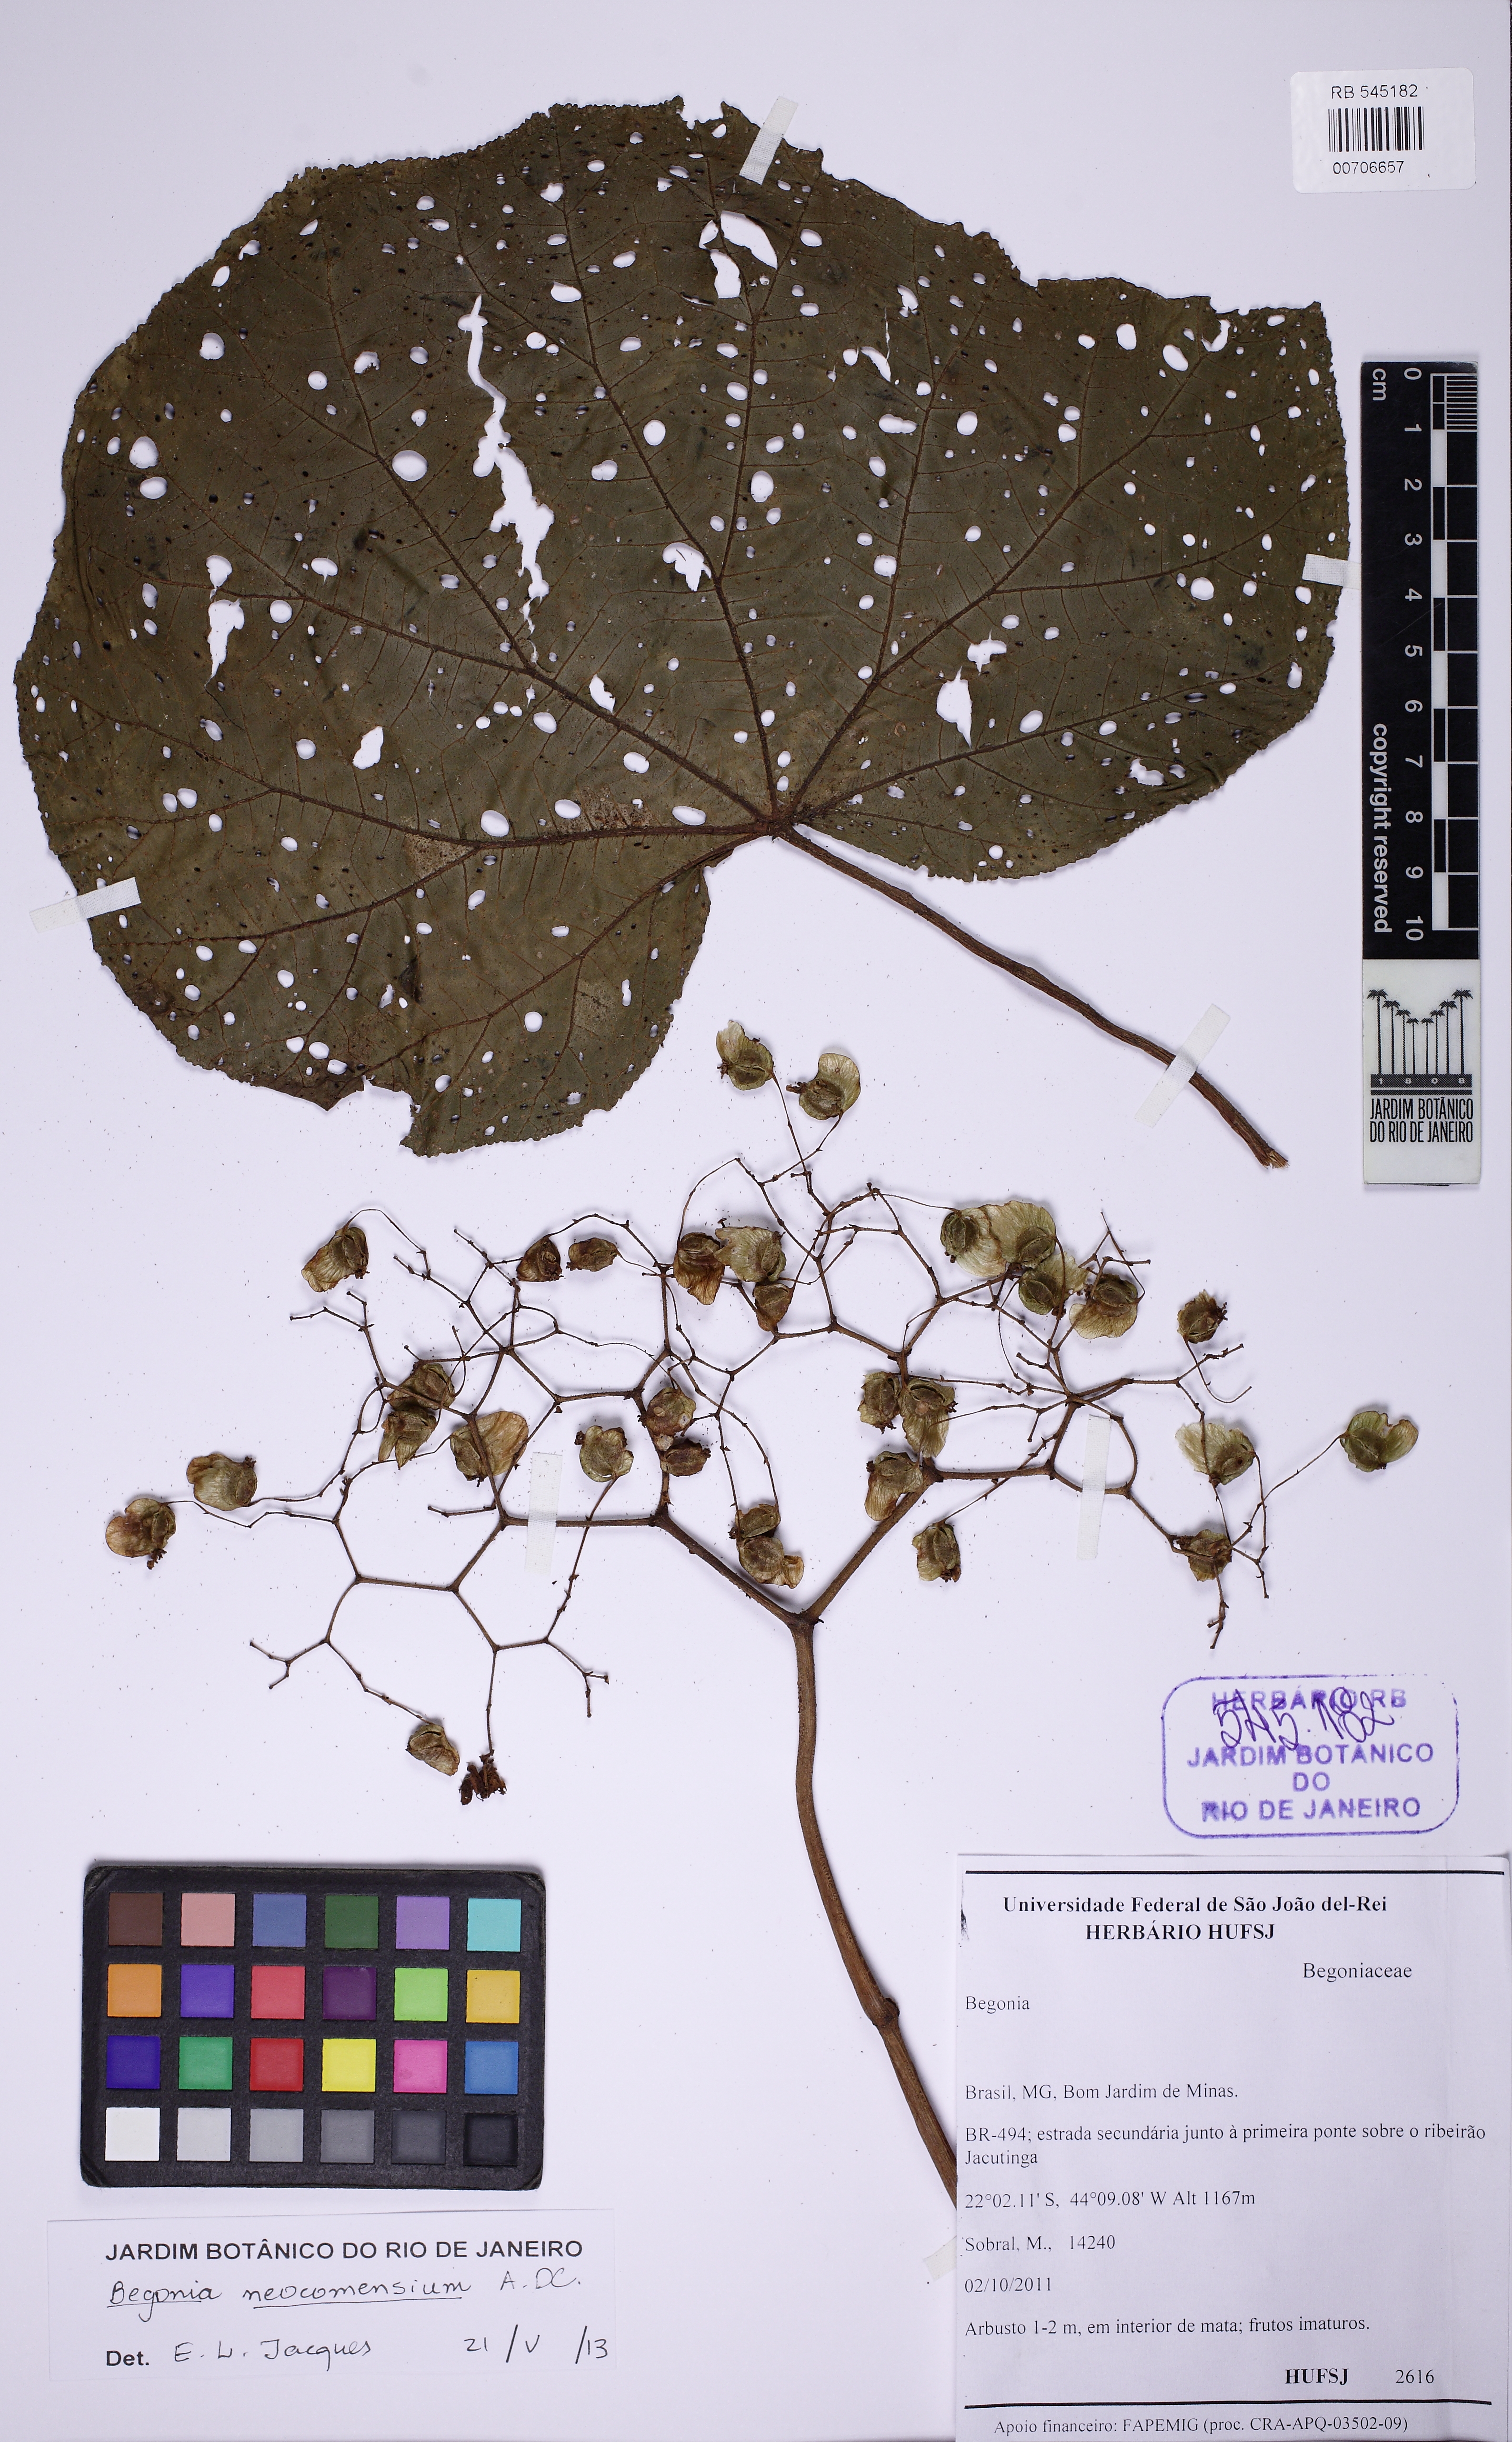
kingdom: Plantae
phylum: Tracheophyta
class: Magnoliopsida
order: Cucurbitales
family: Begoniaceae
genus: Begonia
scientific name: Begonia neocomensium
